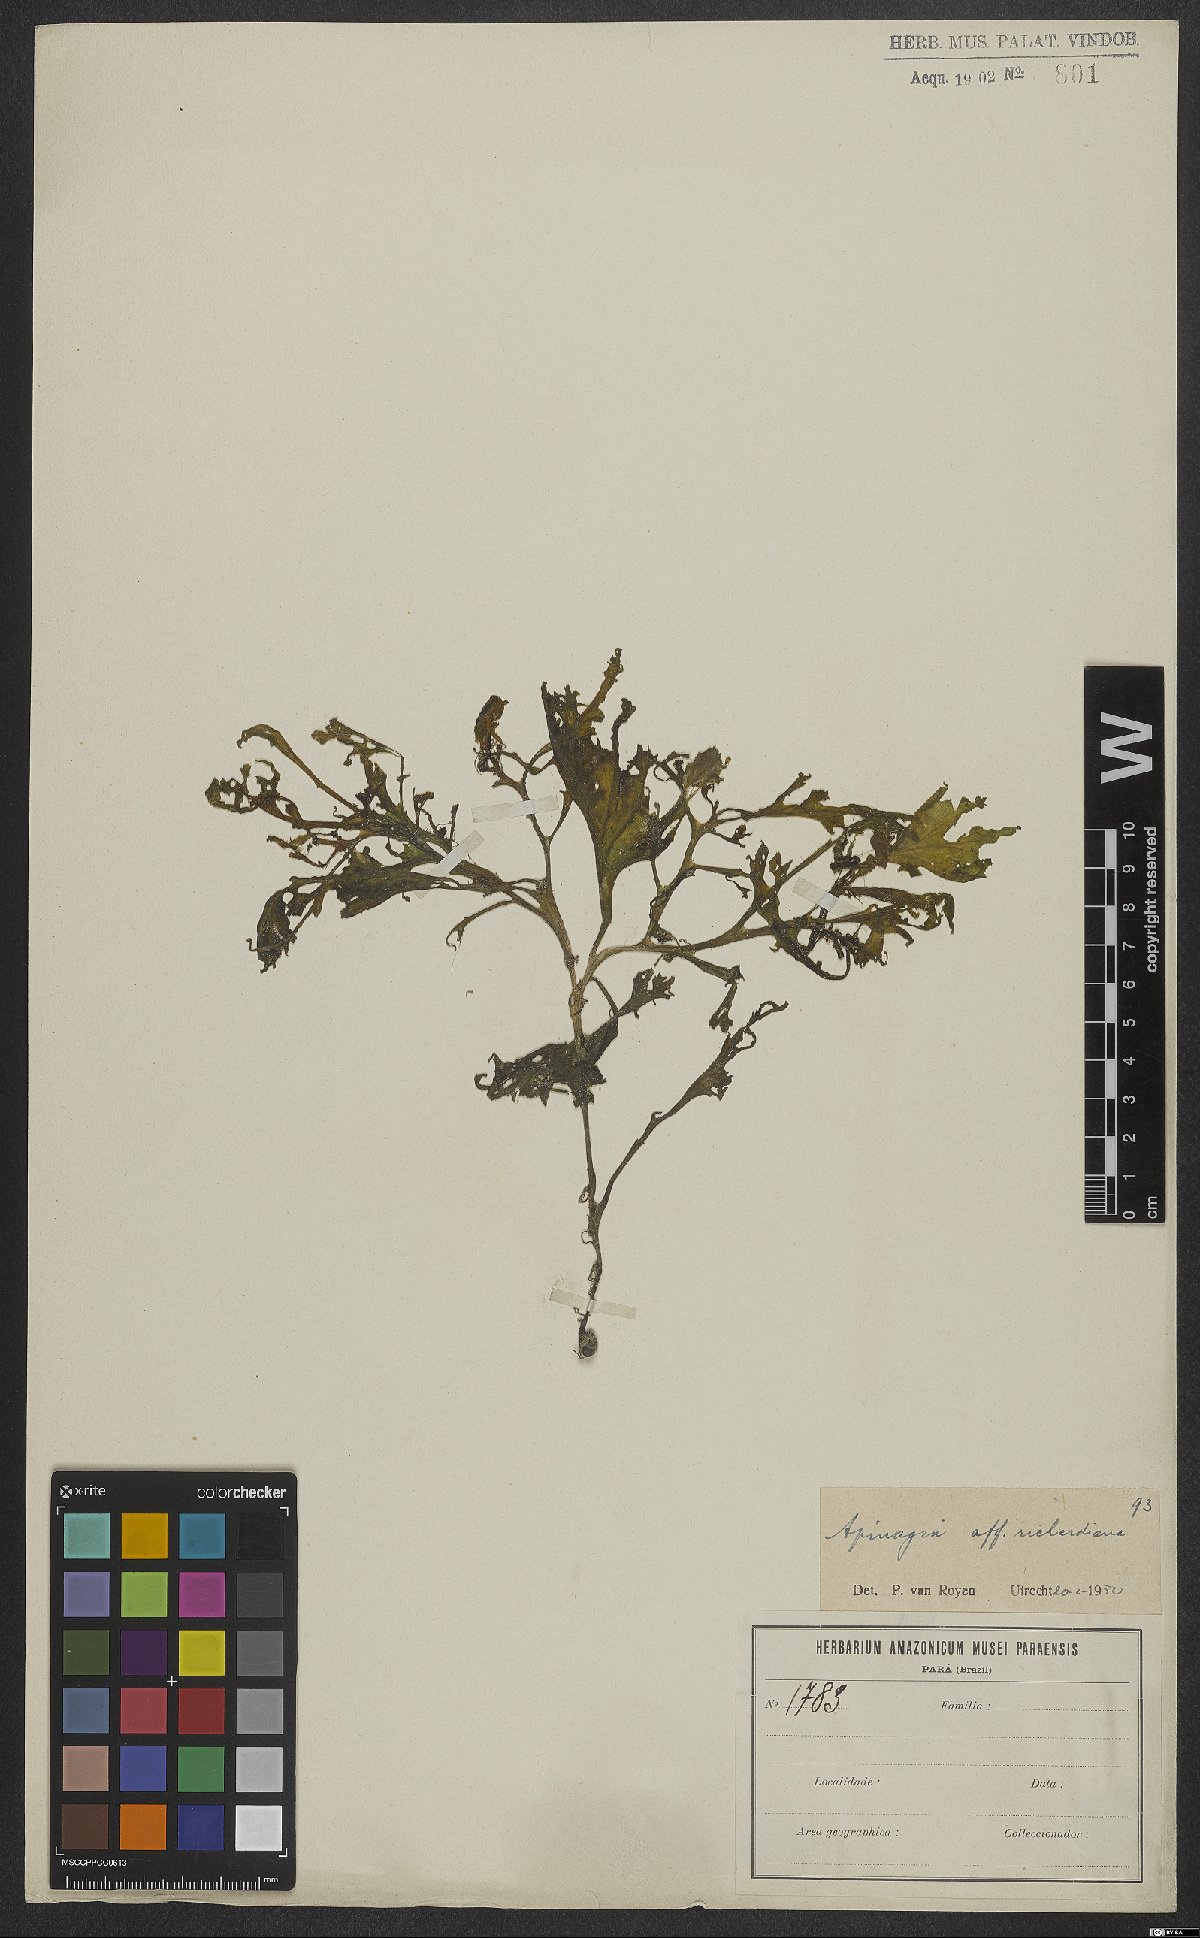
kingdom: Plantae
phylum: Tracheophyta
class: Magnoliopsida
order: Malpighiales
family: Podostemaceae
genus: Apinagia
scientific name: Apinagia richardiana
